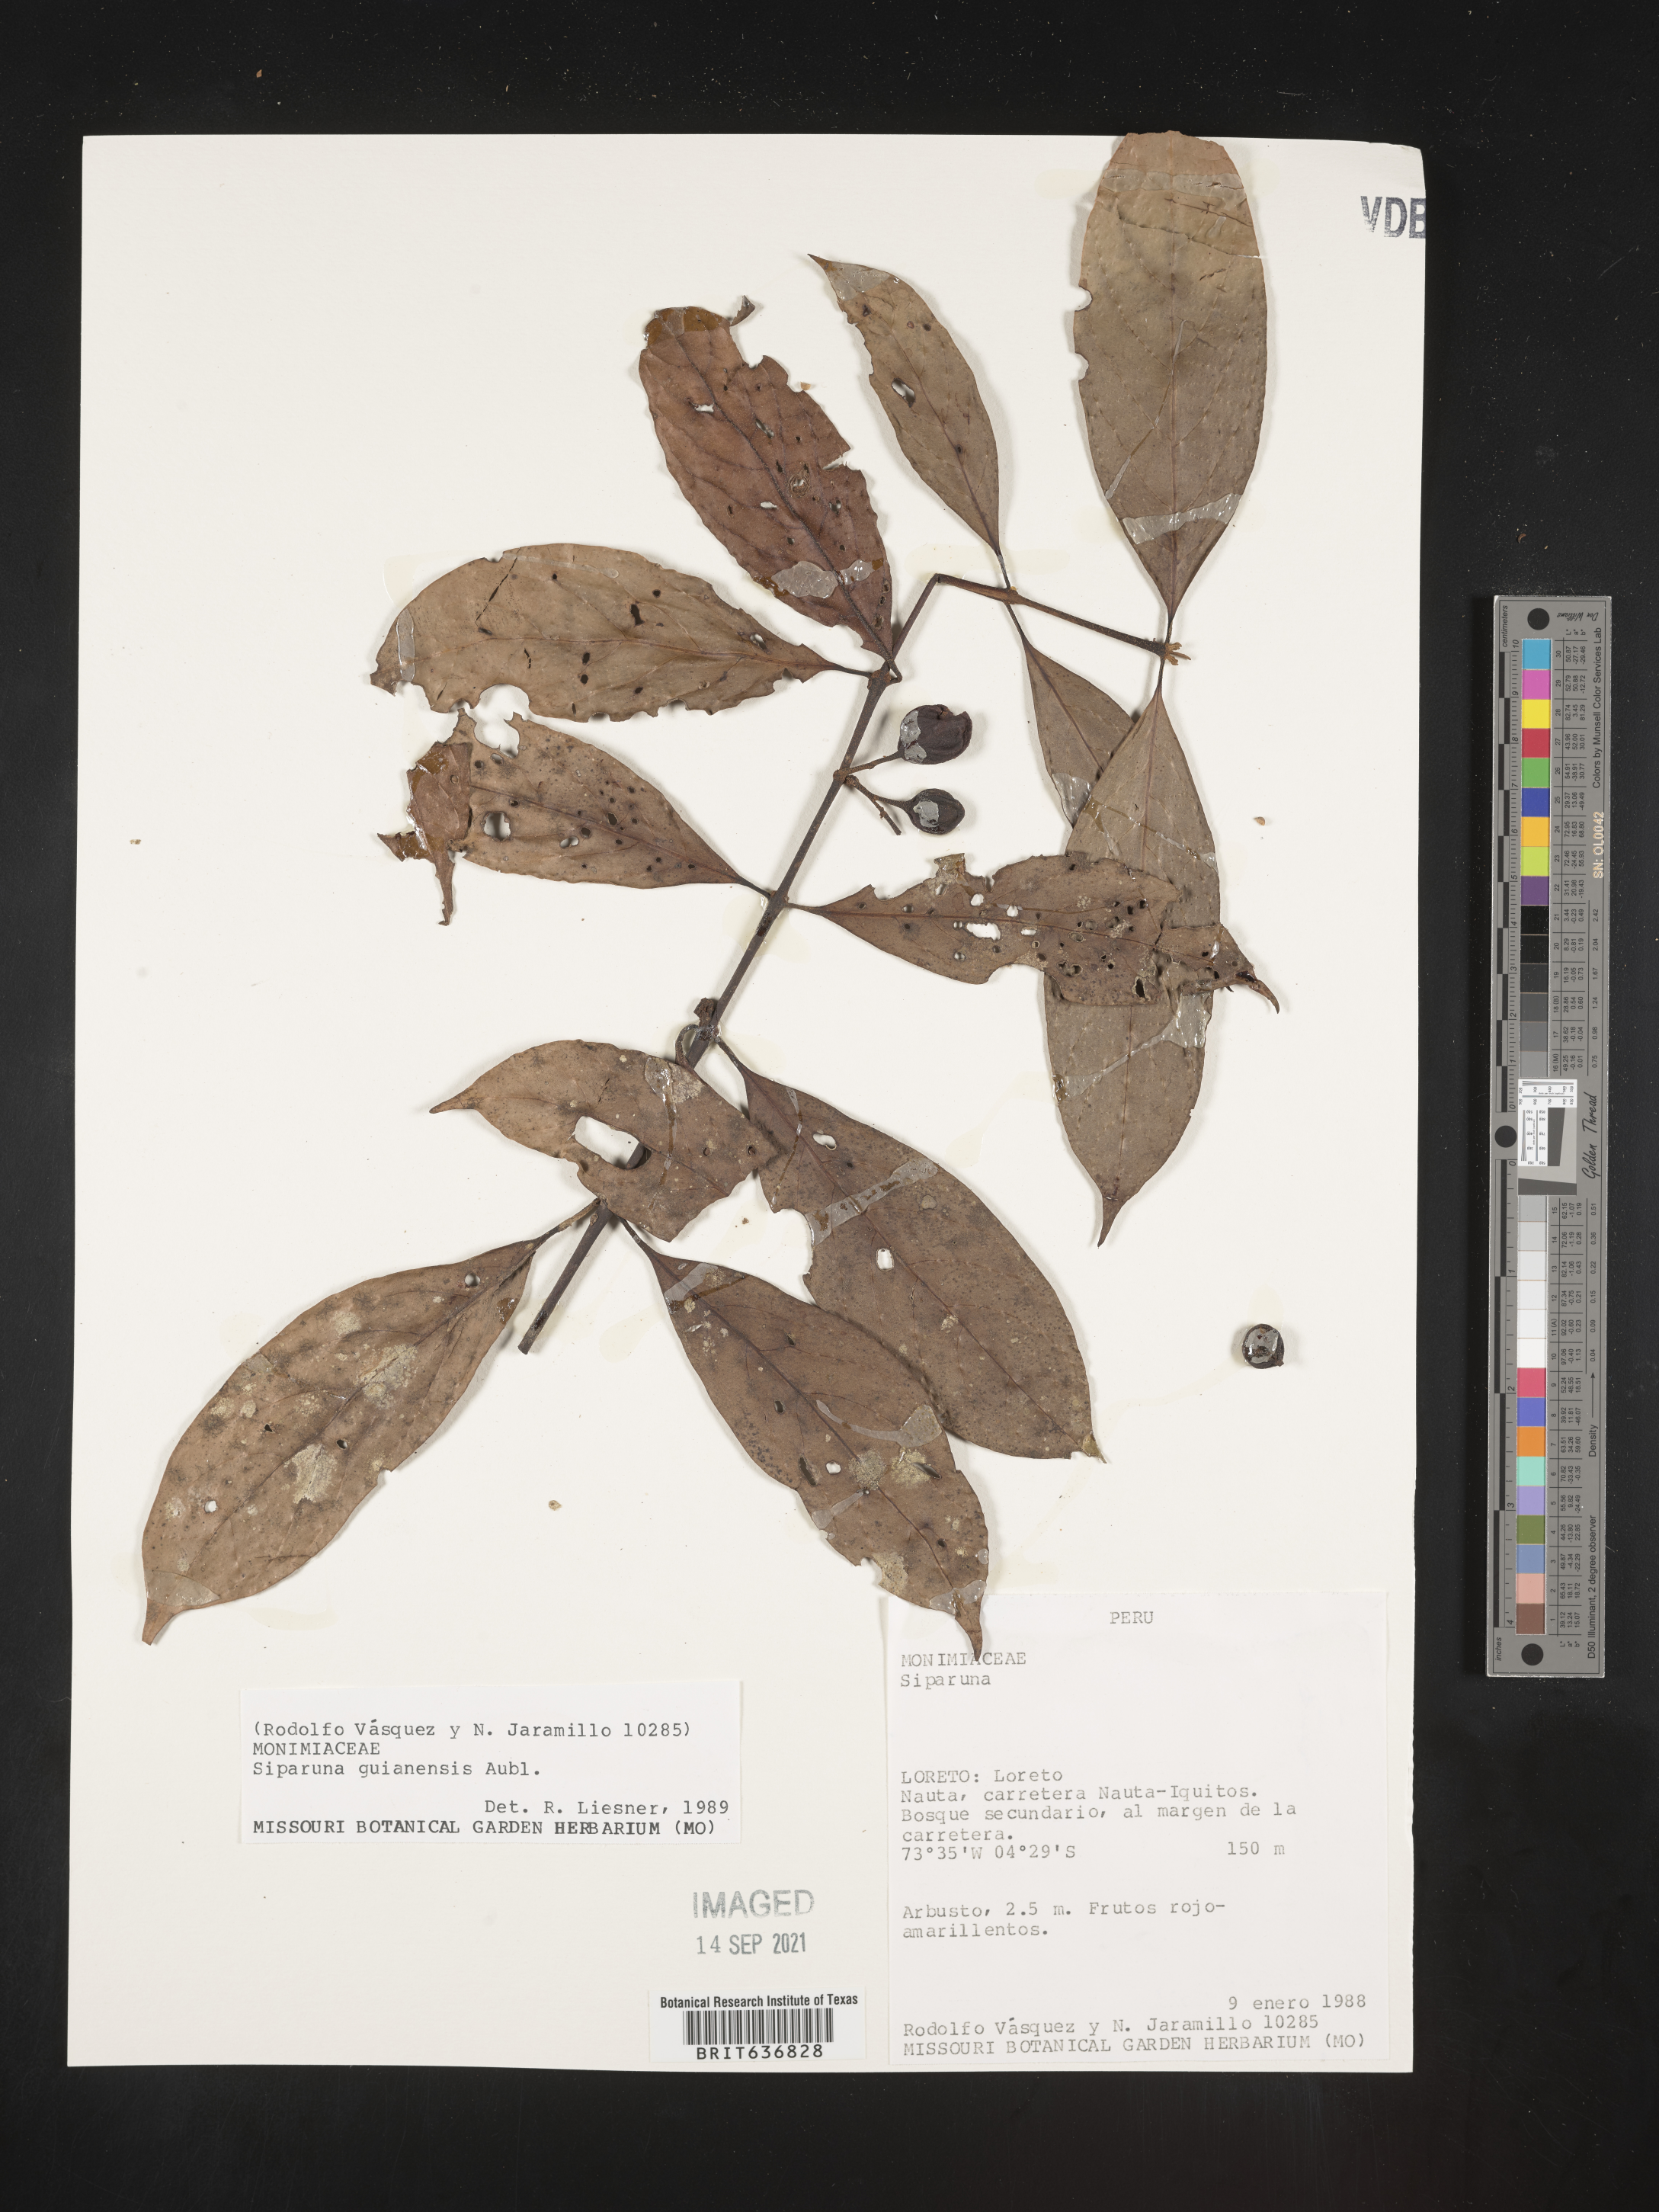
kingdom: Plantae
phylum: Tracheophyta
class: Magnoliopsida
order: Laurales
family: Siparunaceae
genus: Siparuna
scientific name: Siparuna
